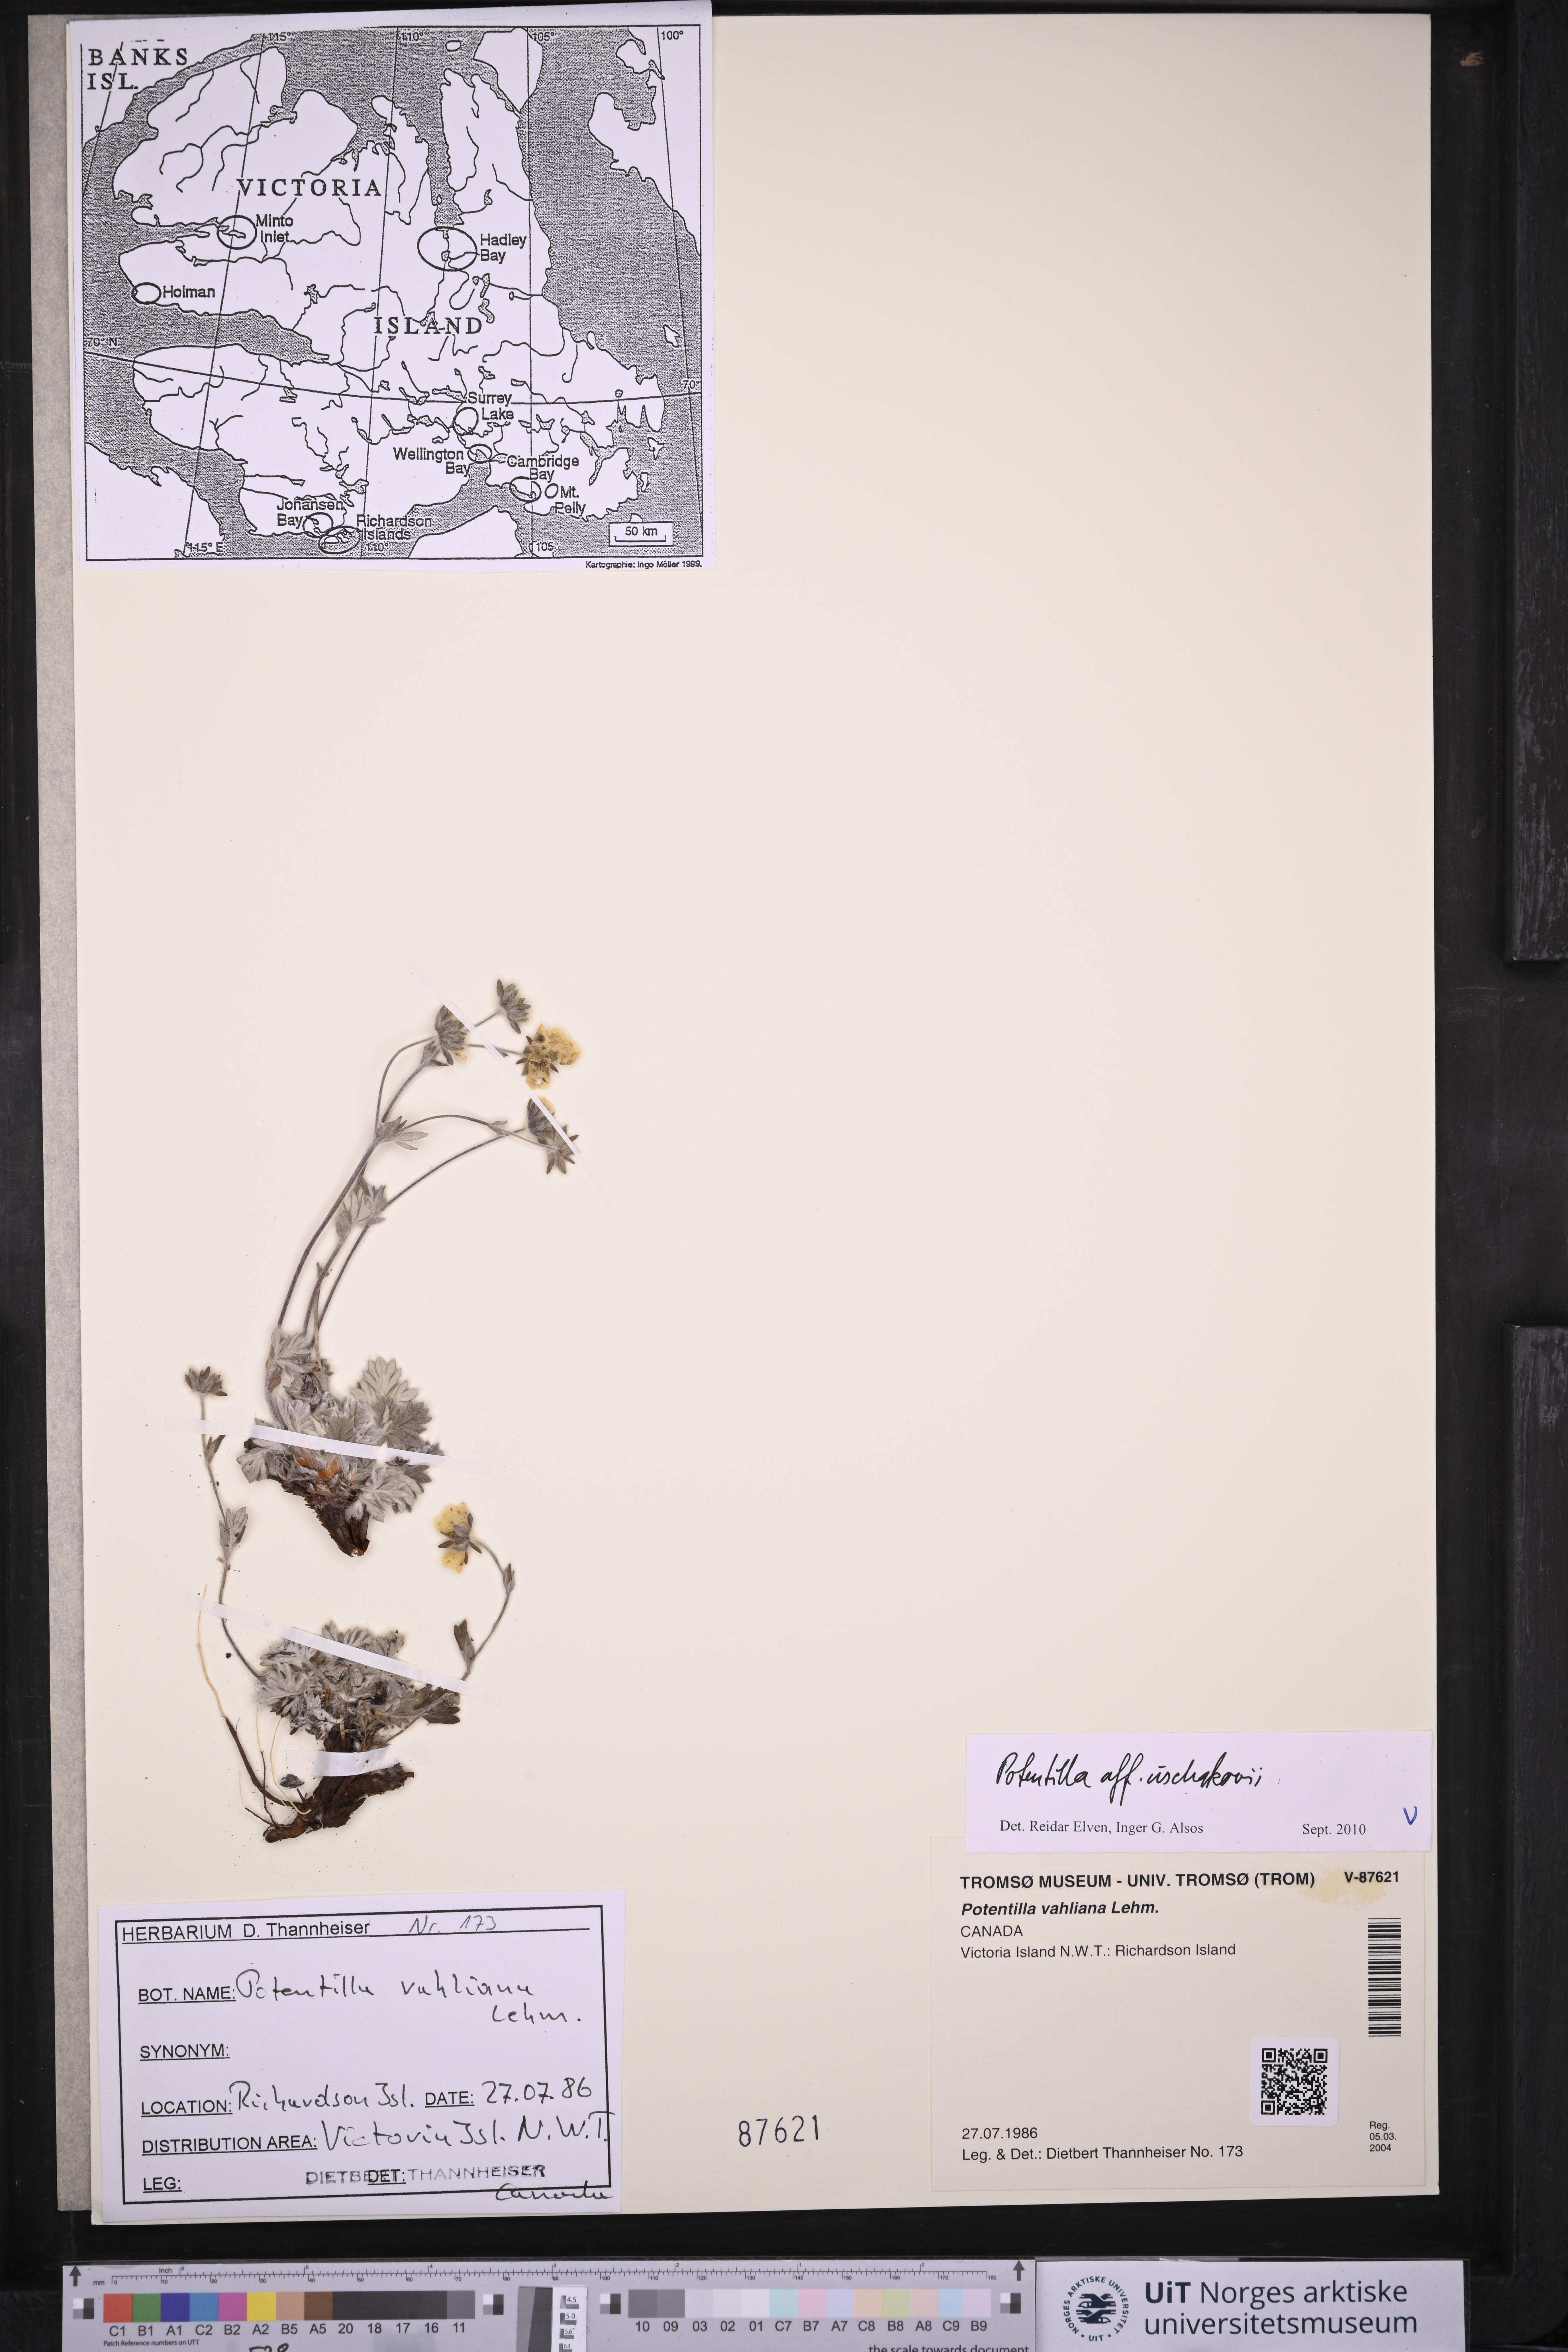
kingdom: Plantae
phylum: Tracheophyta
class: Magnoliopsida
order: Rosales
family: Rosaceae
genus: Potentilla
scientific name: Potentilla uschakovii
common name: Ushakov's cinquefoil
